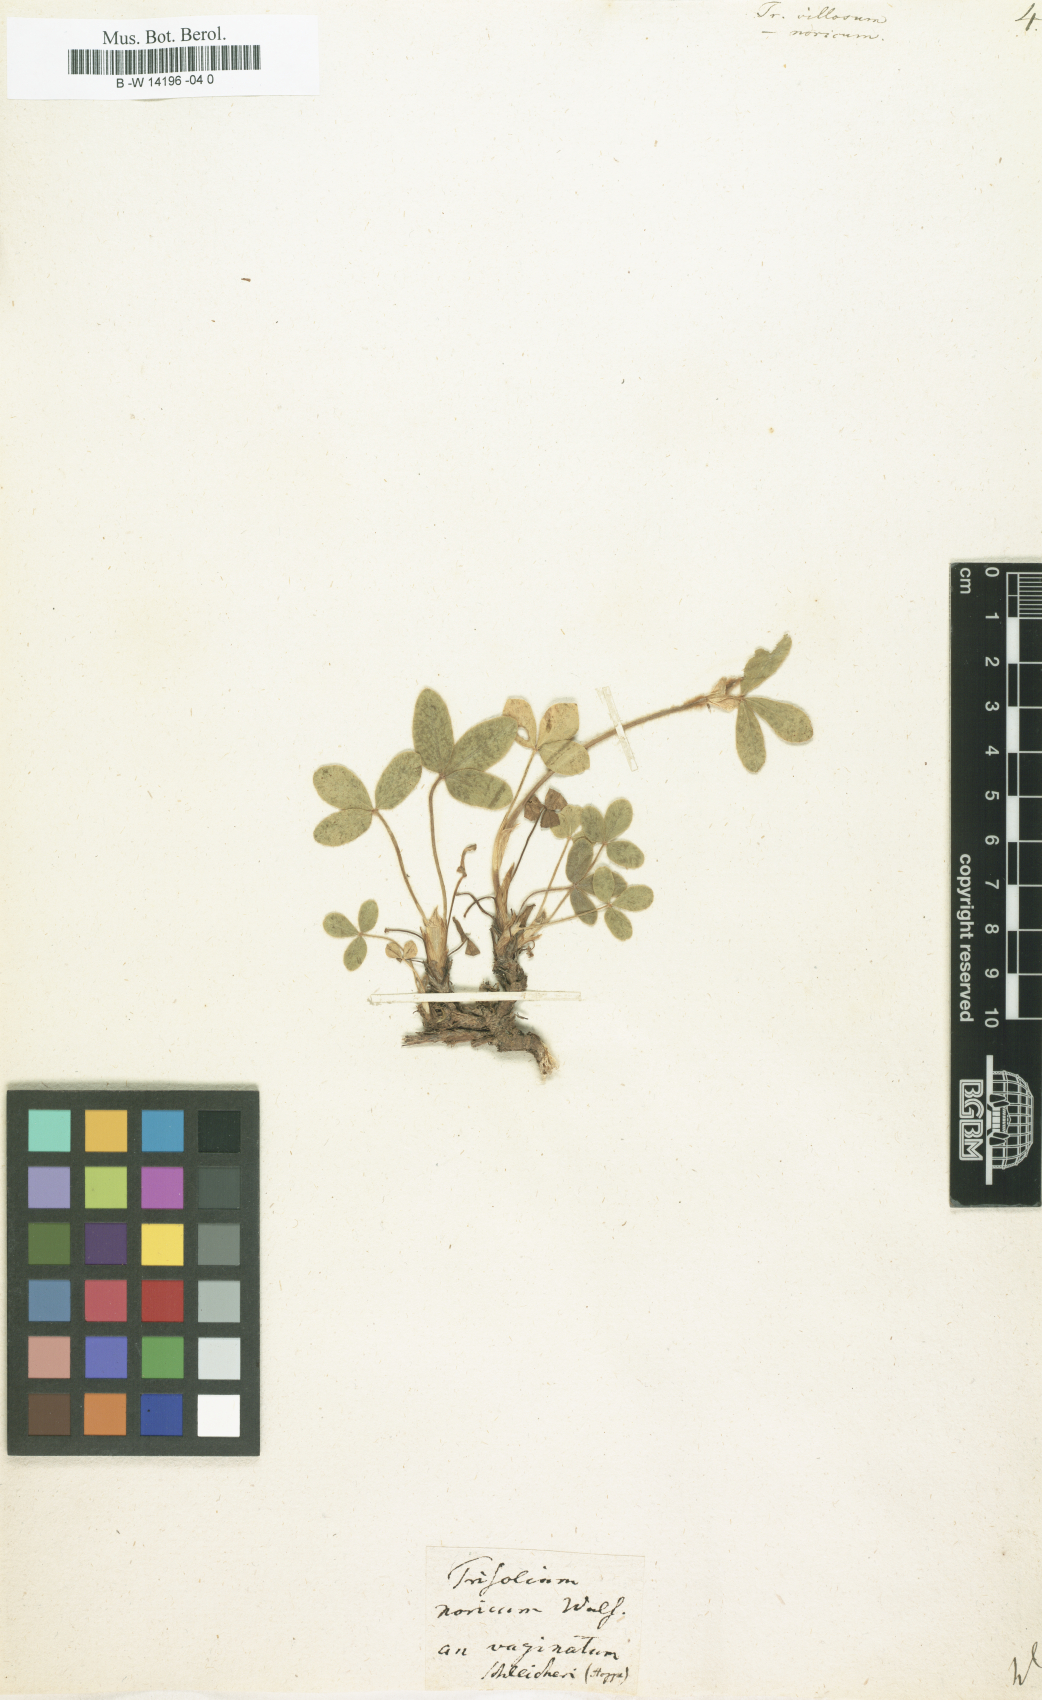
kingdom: Plantae
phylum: Tracheophyta
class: Magnoliopsida
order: Fabales
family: Fabaceae
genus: Trifolium
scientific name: Trifolium
